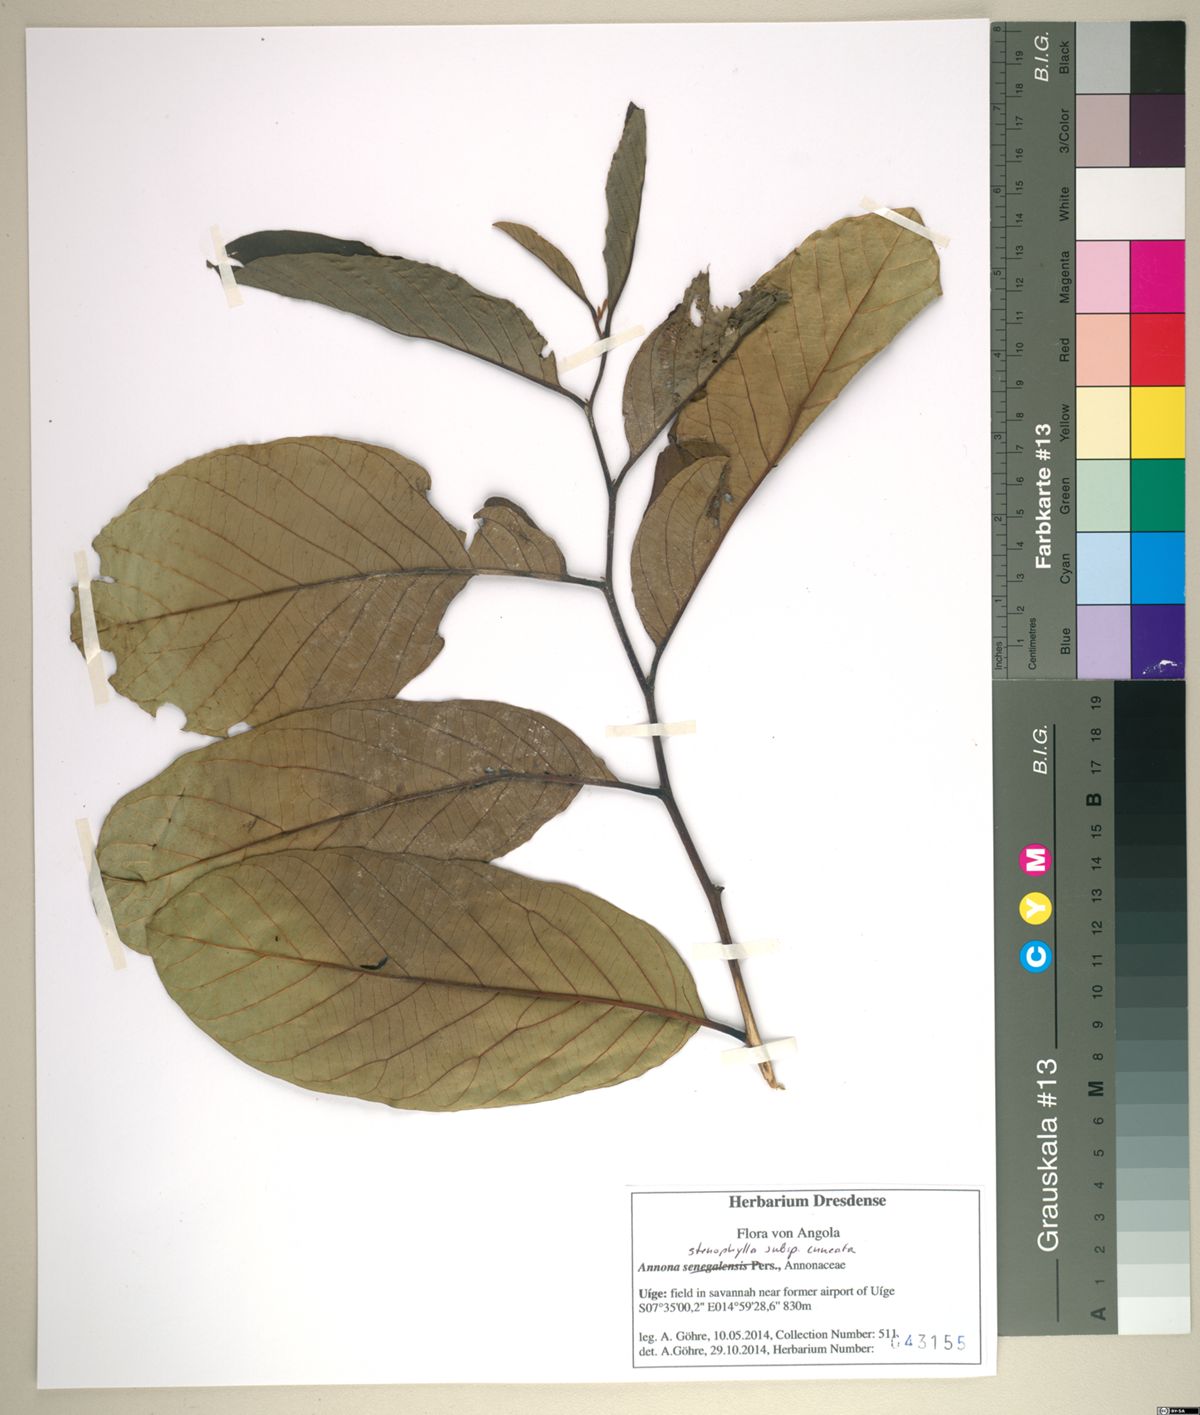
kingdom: Plantae
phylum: Tracheophyta
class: Magnoliopsida
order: Magnoliales
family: Annonaceae
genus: Annona
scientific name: Annona stenophylla
